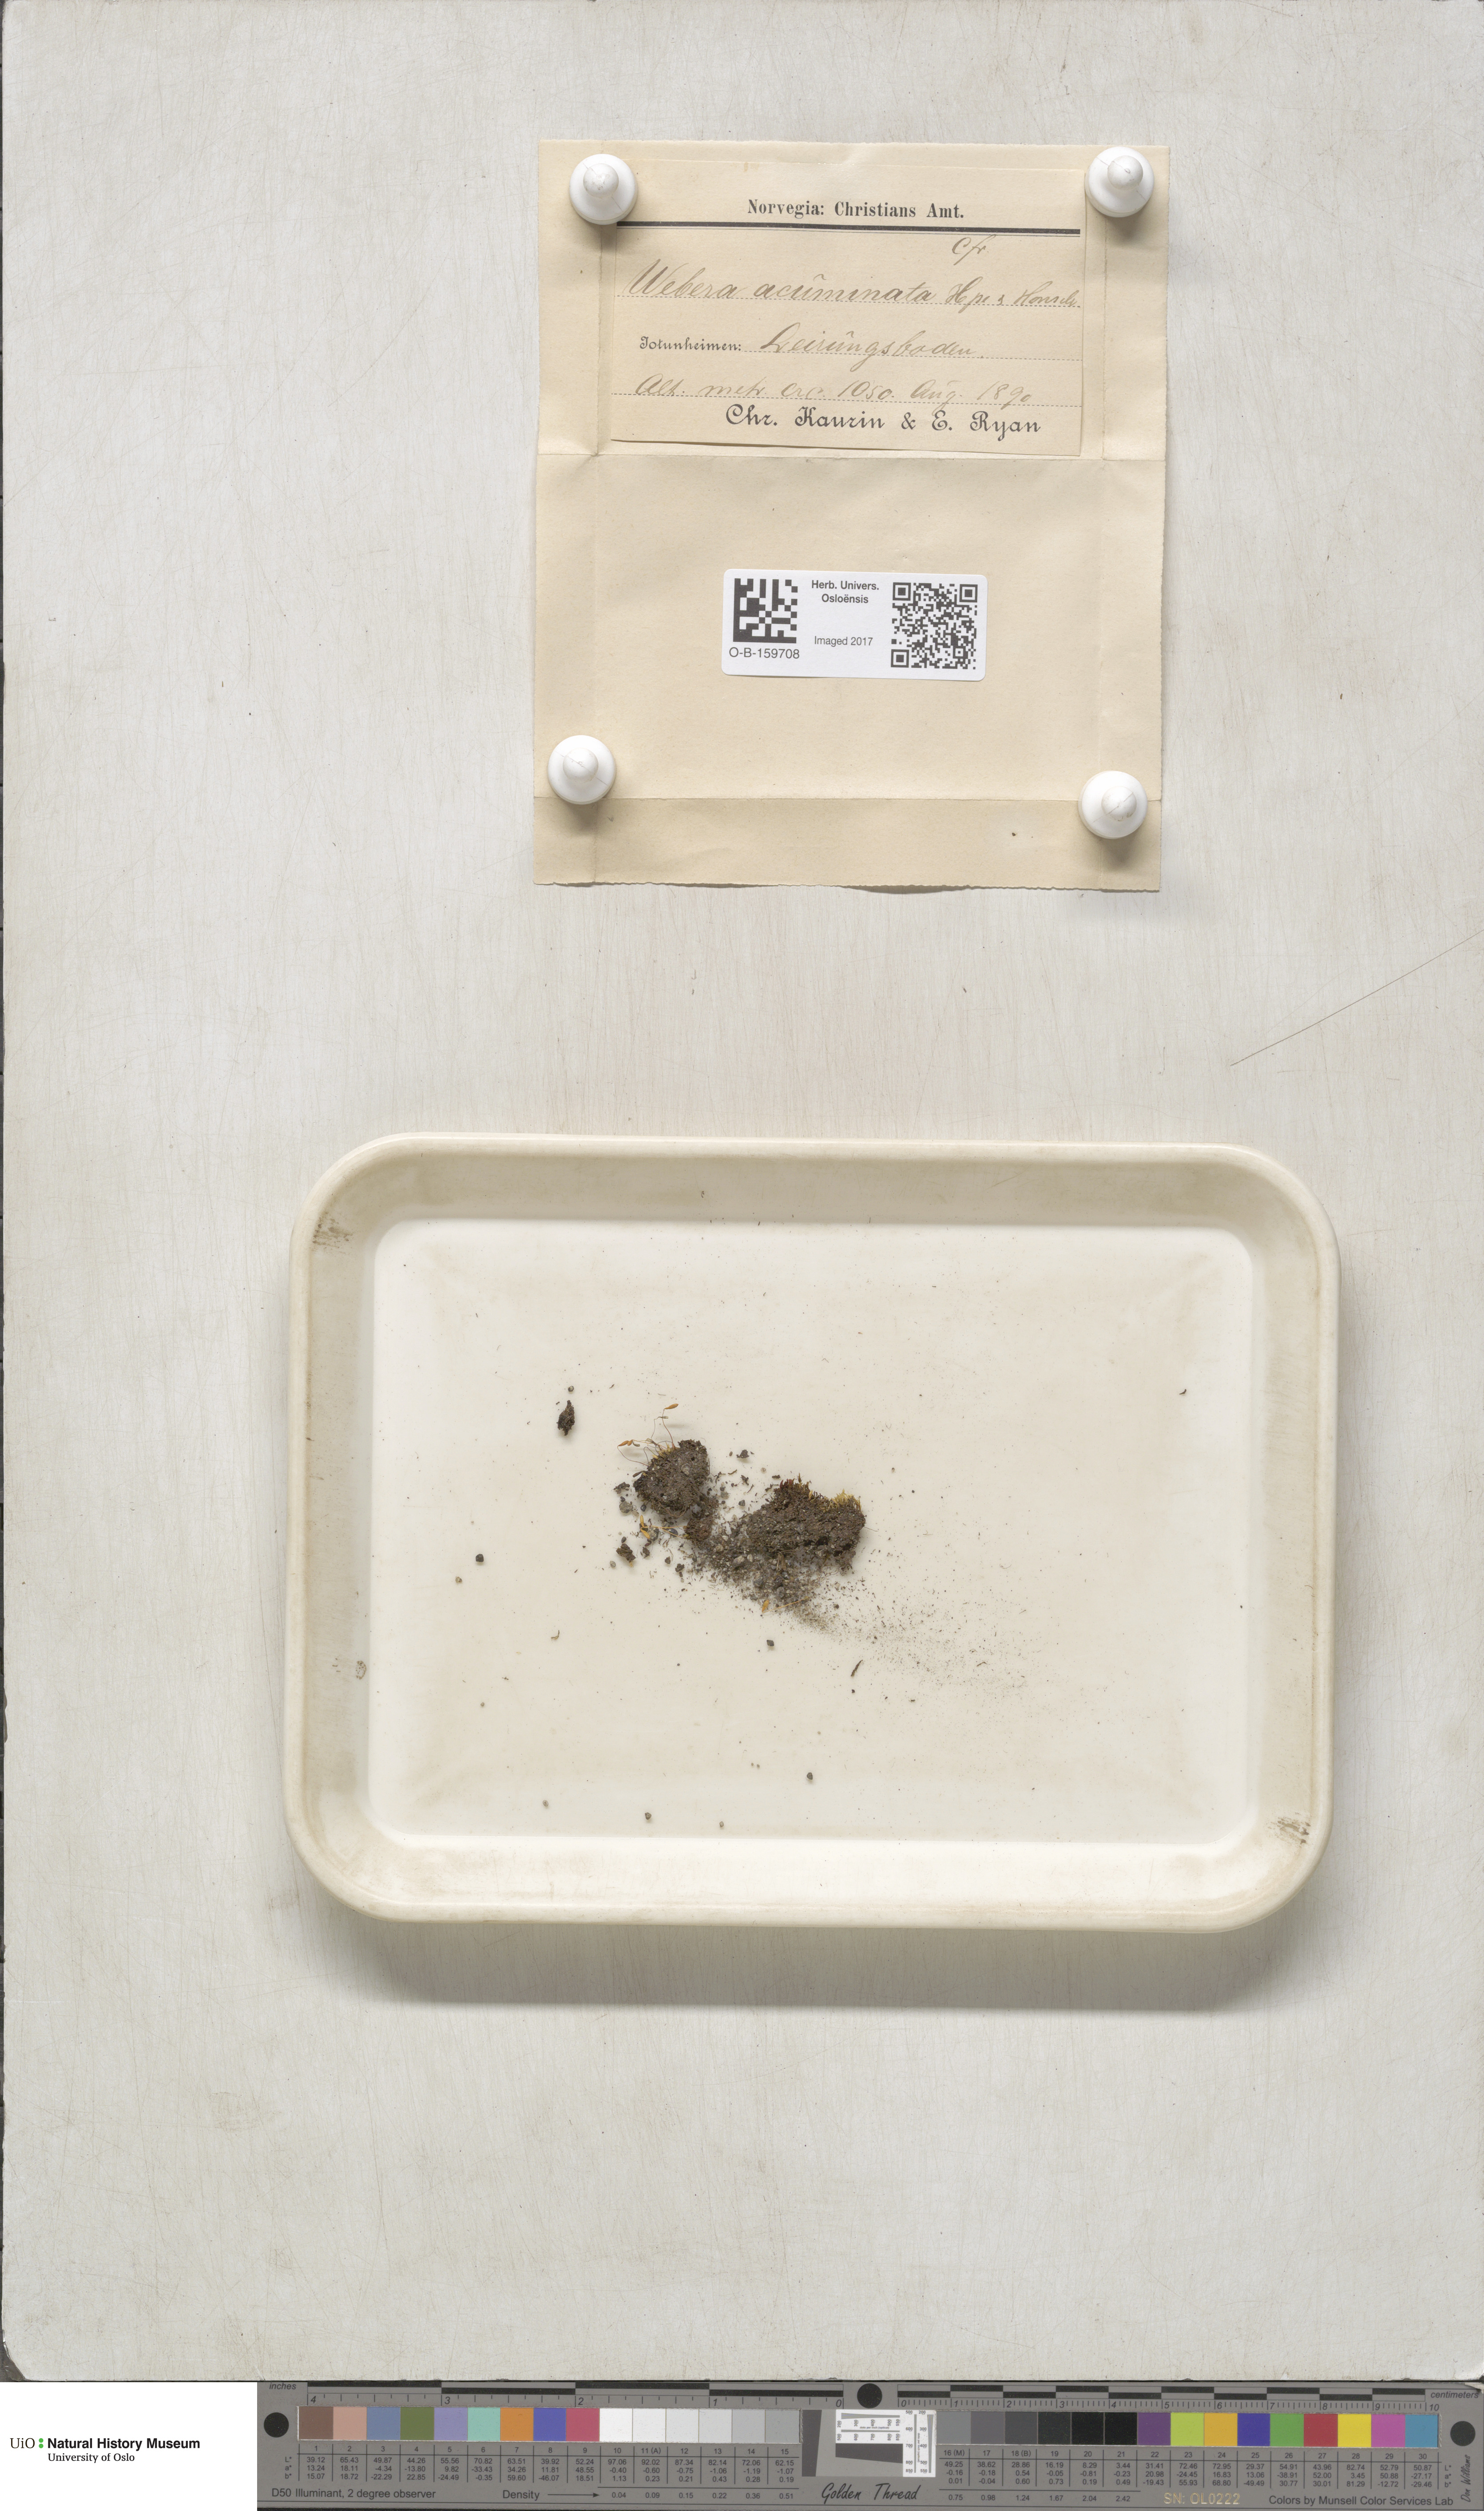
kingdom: Plantae
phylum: Bryophyta
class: Bryopsida
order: Bryales
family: Mniaceae
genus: Pohlia
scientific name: Pohlia elongata
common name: Long-fruited thread-moss
